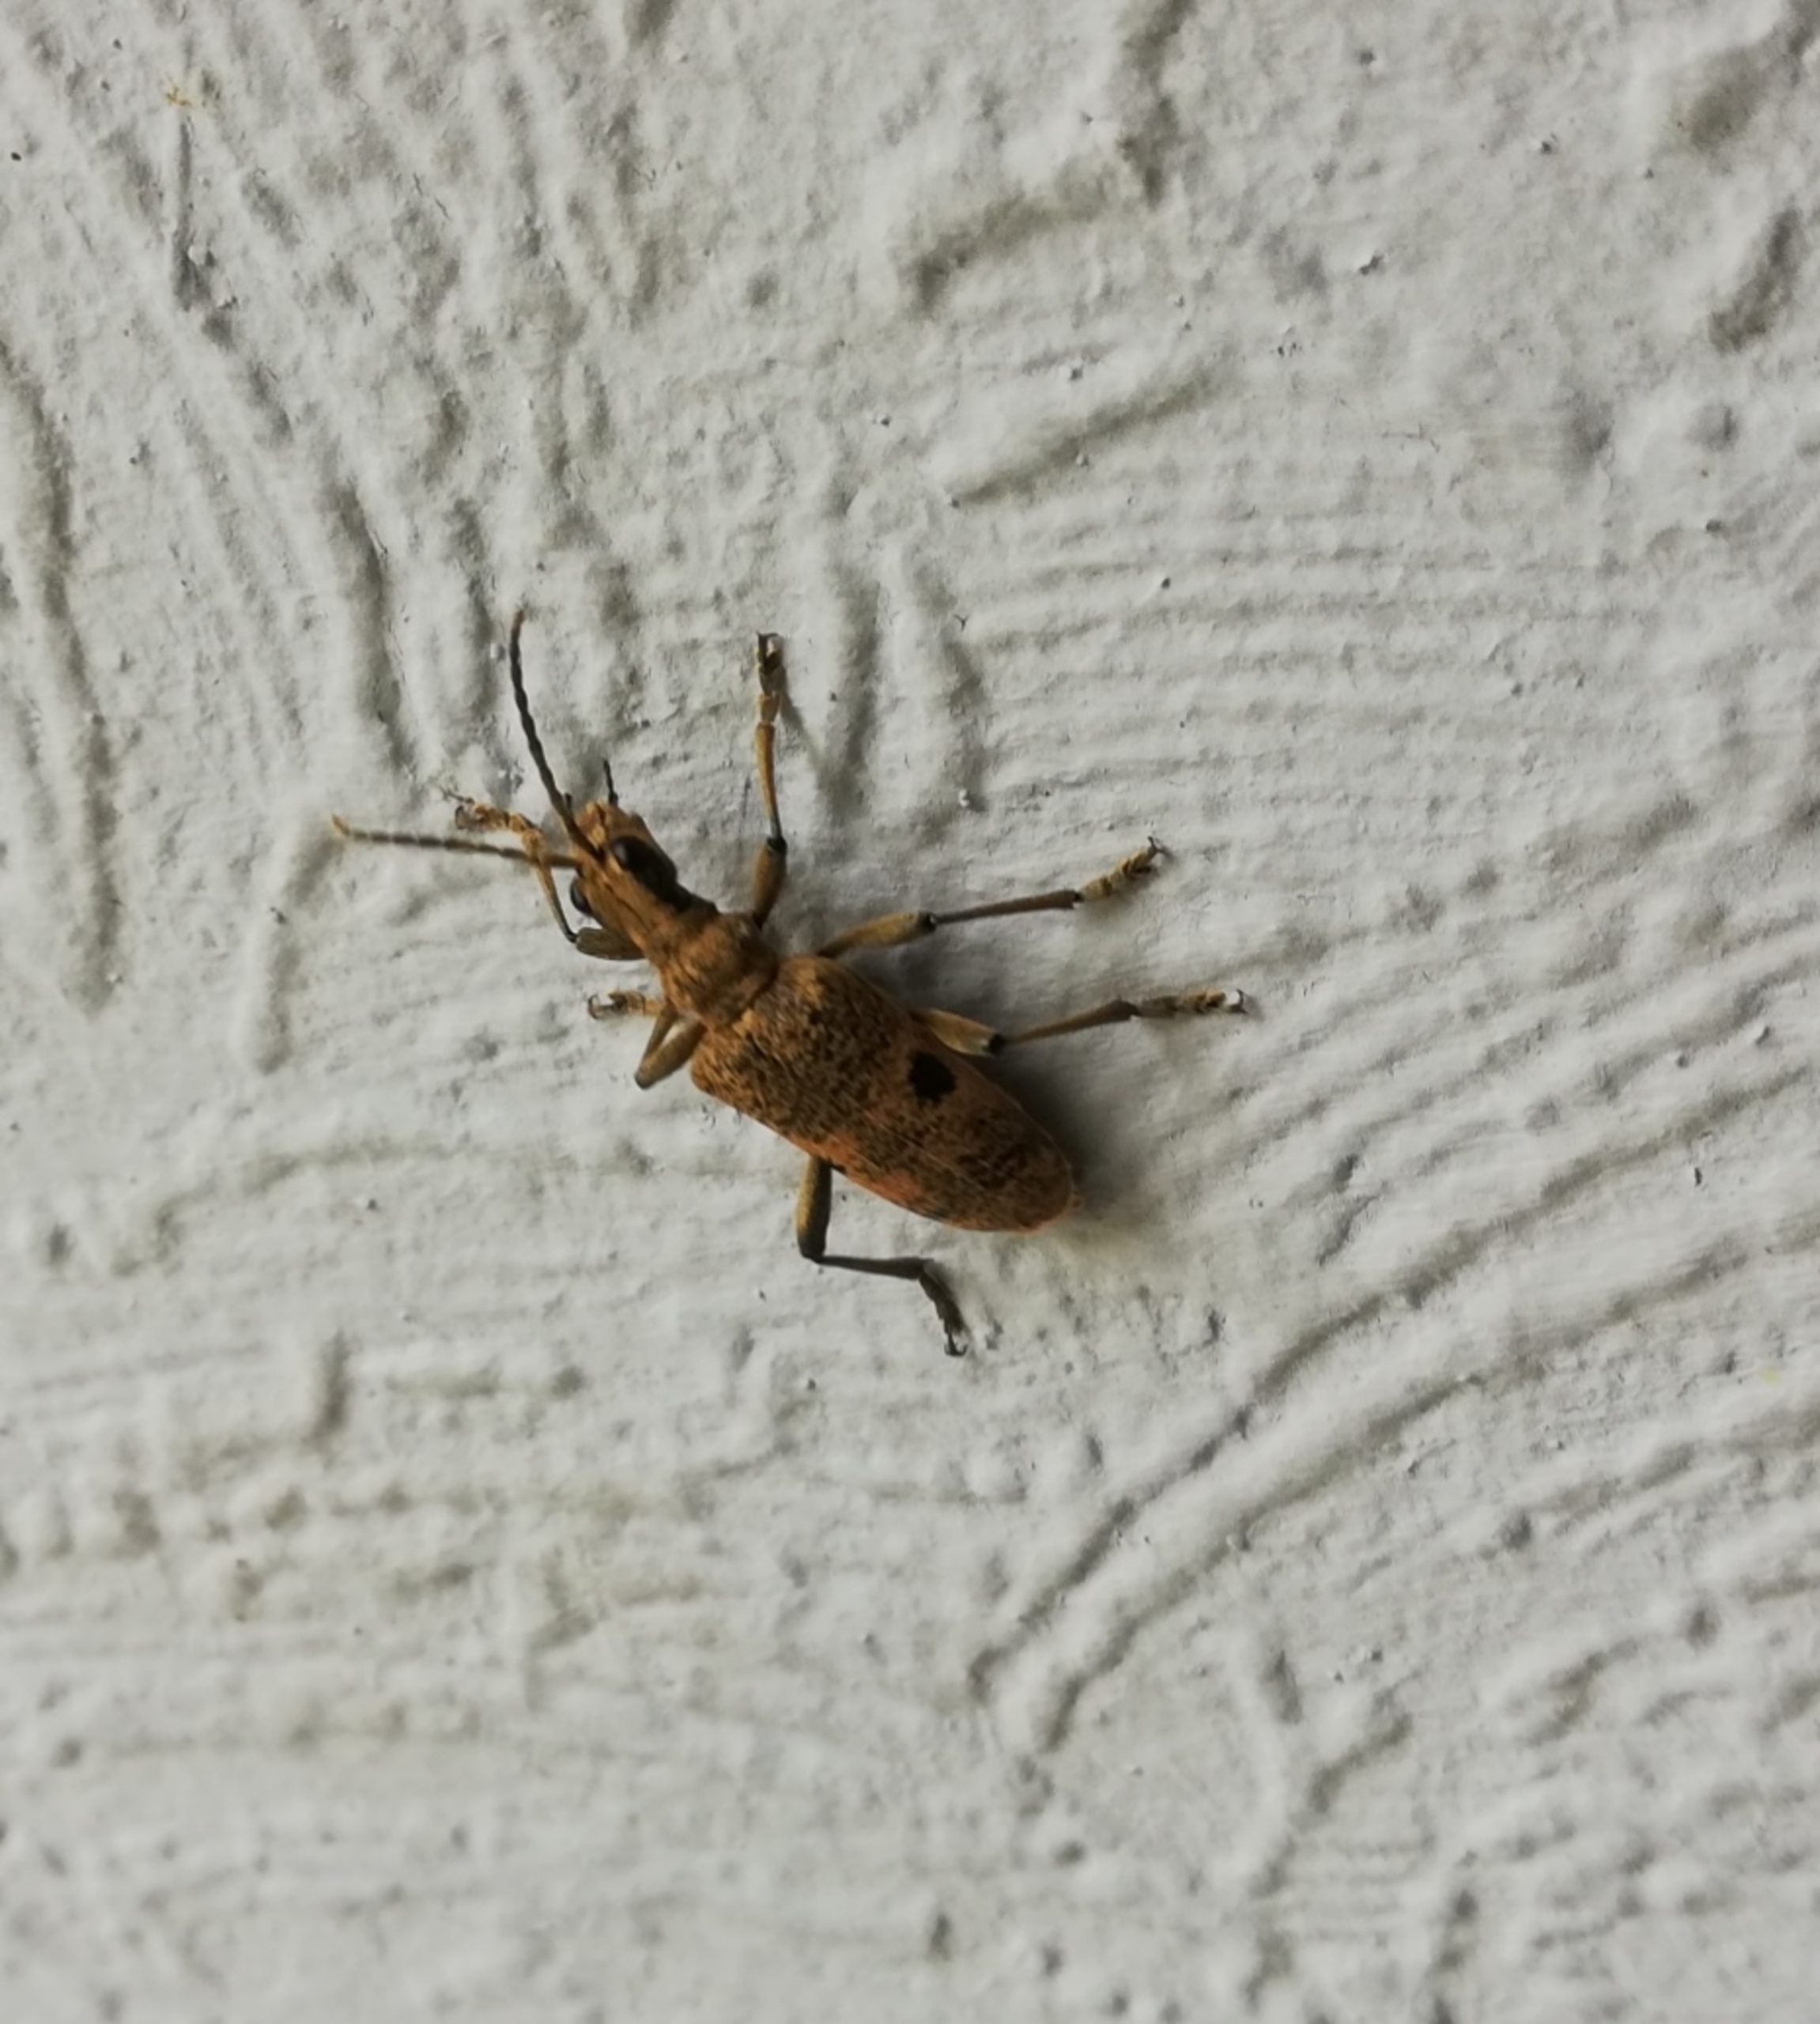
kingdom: Animalia
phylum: Arthropoda
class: Insecta
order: Coleoptera
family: Cerambycidae
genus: Rhagium
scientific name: Rhagium mordax
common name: Blankplettet tandbuk
